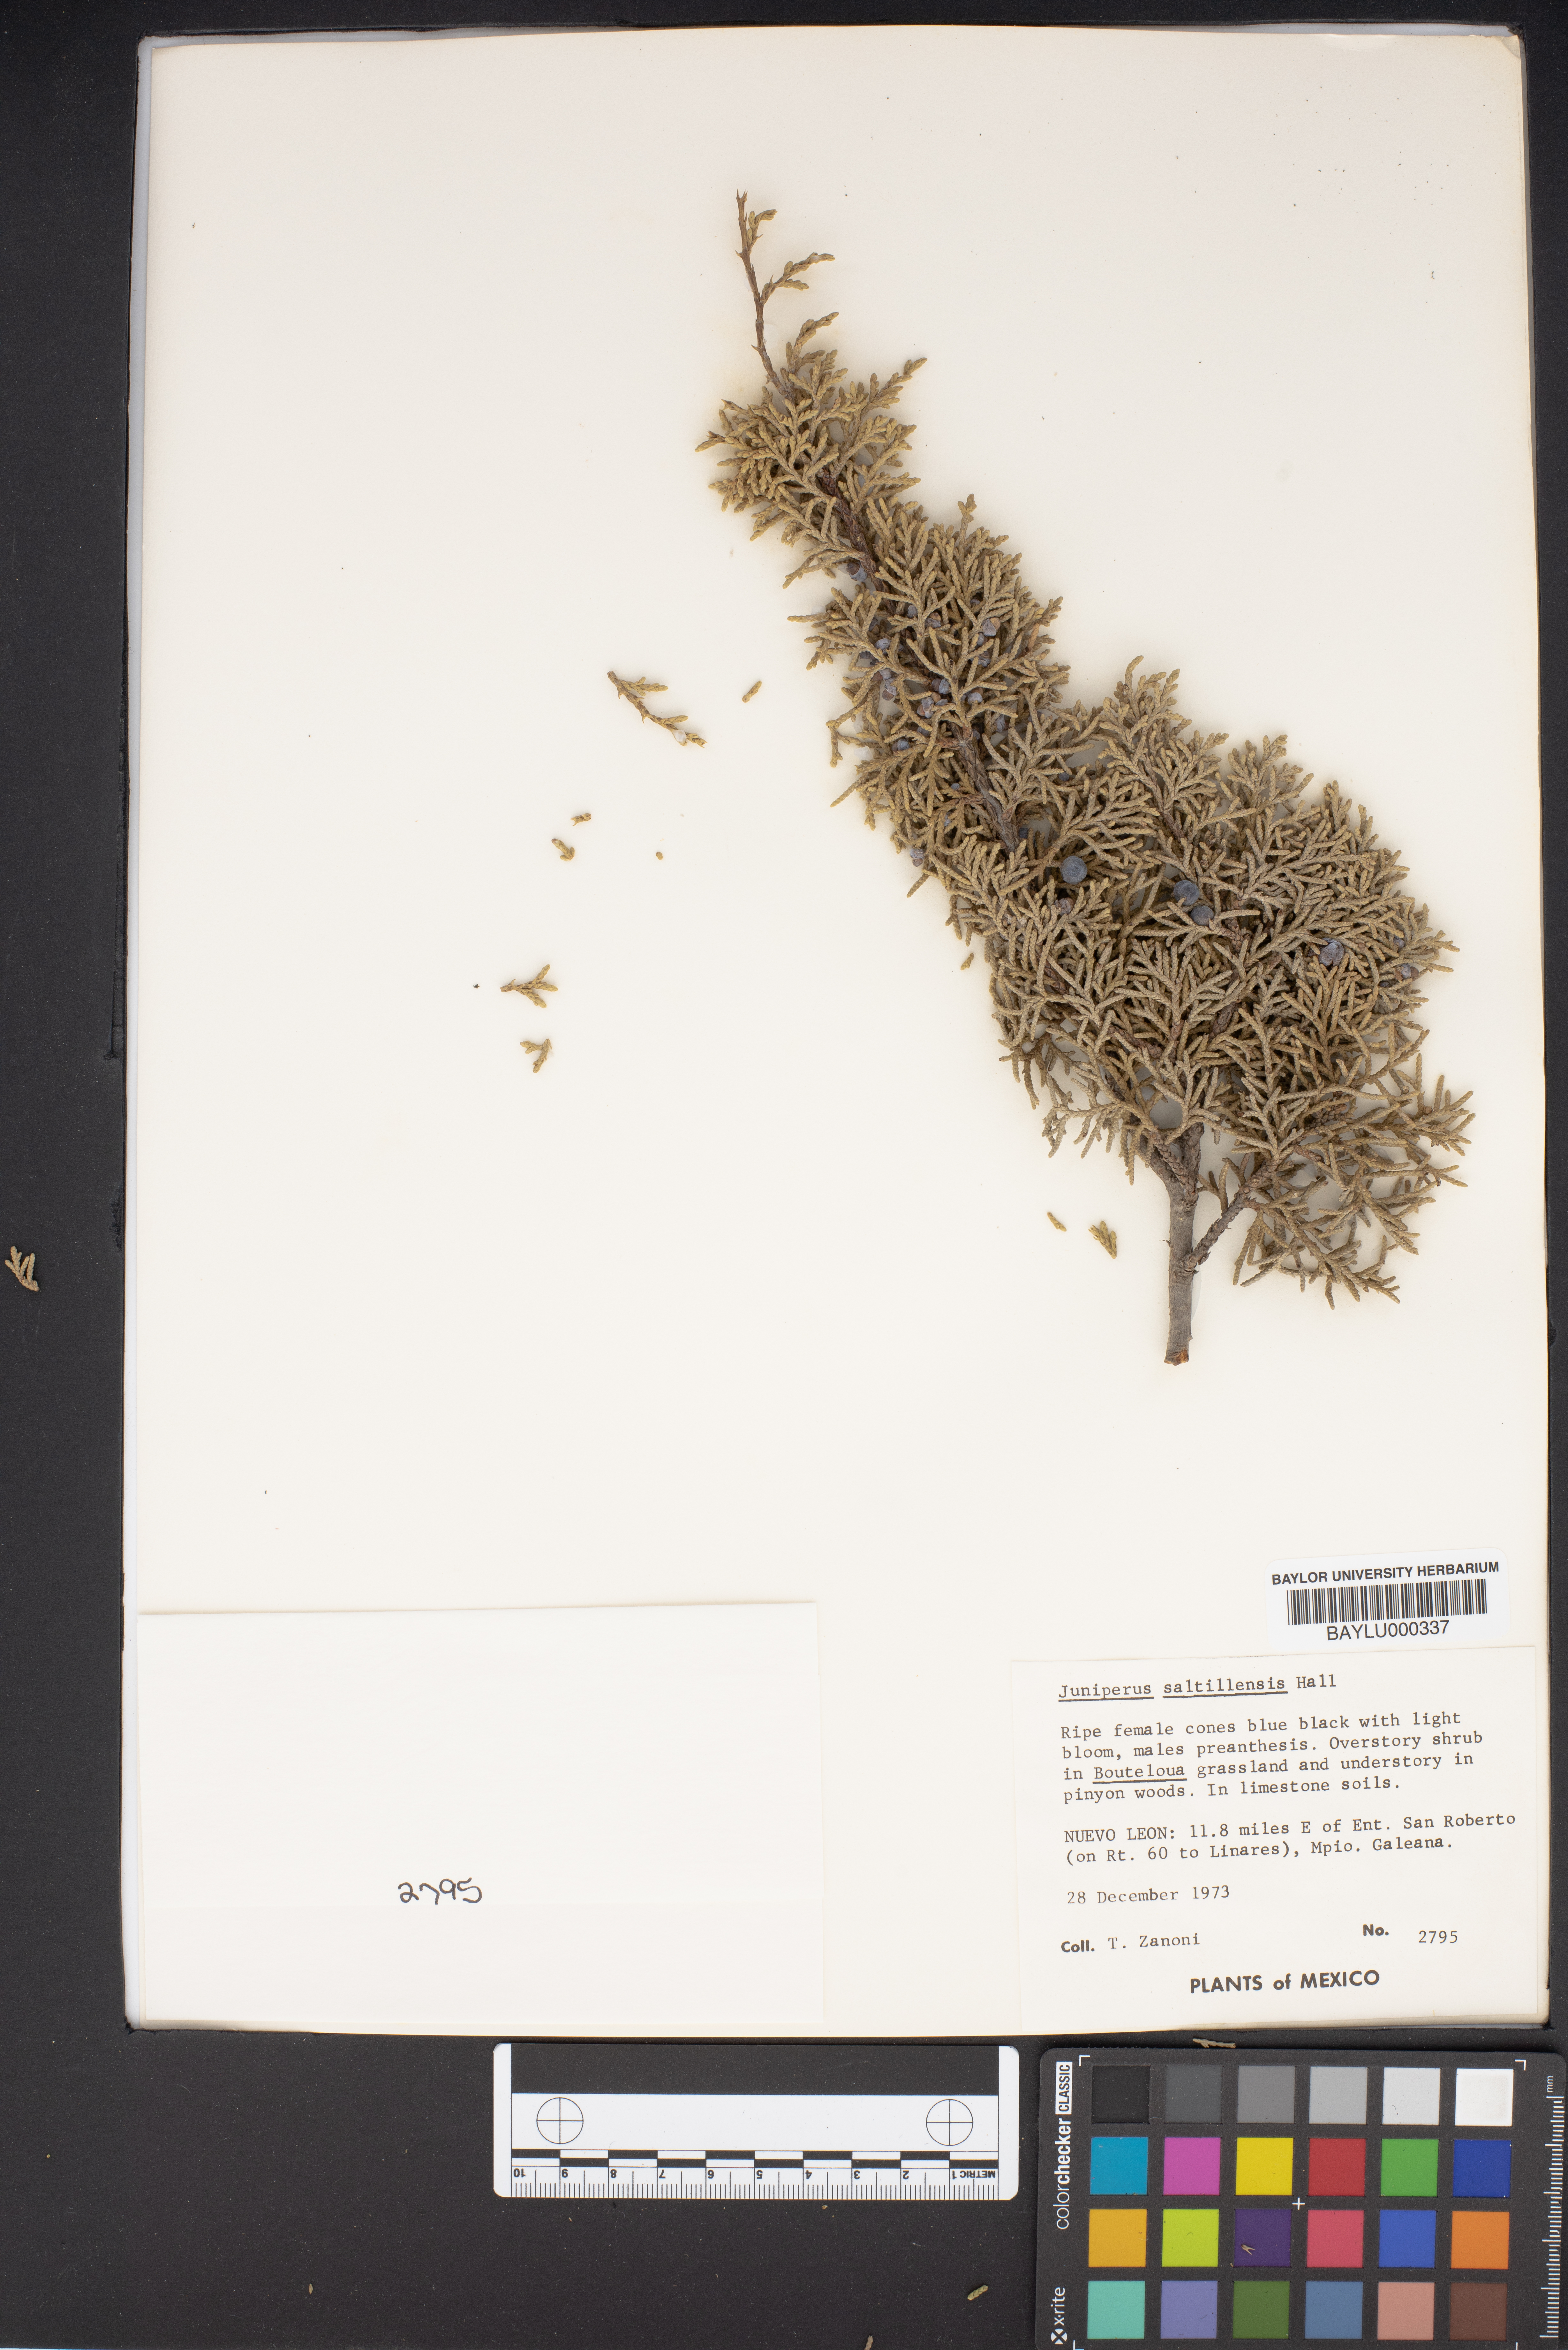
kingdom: Plantae
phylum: Tracheophyta
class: Pinopsida
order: Pinales
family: Cupressaceae
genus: Juniperus
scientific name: Juniperus saltillensis
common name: Saltillo juniper
